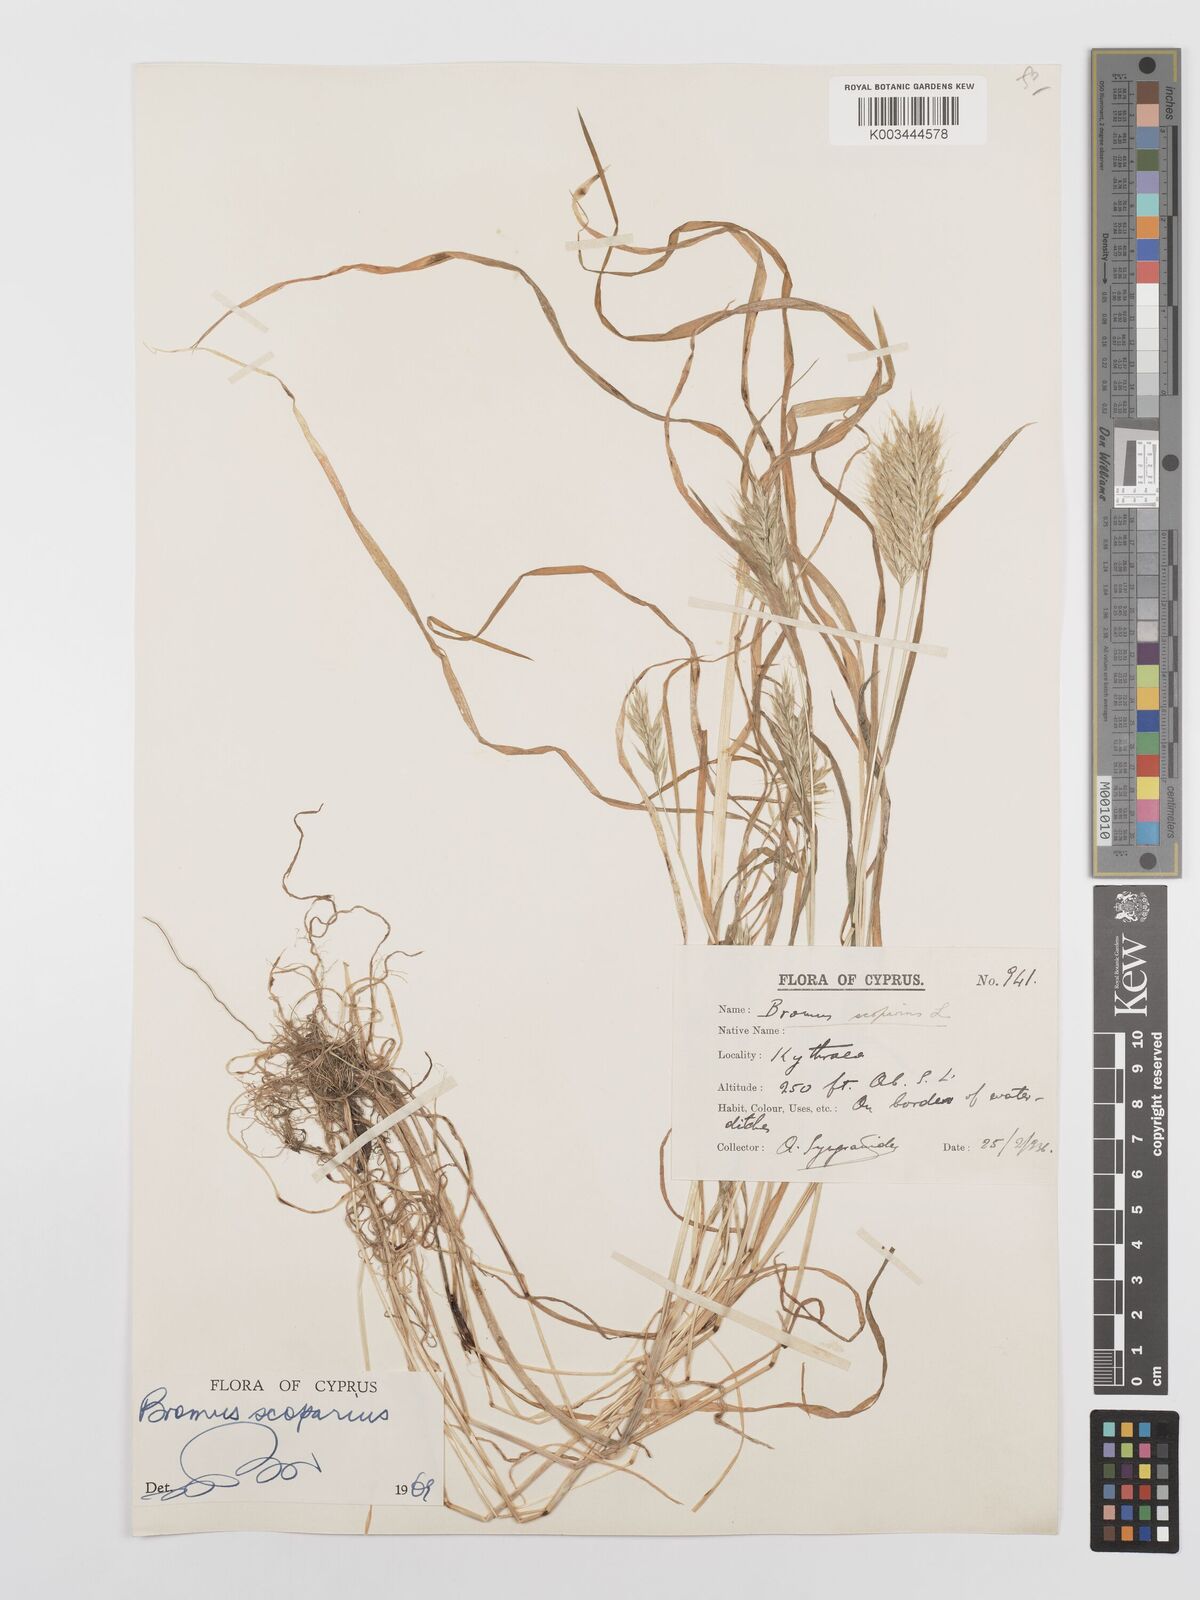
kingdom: Plantae
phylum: Tracheophyta
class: Liliopsida
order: Poales
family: Poaceae
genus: Bromus
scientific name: Bromus scoparius
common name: Broom brome
